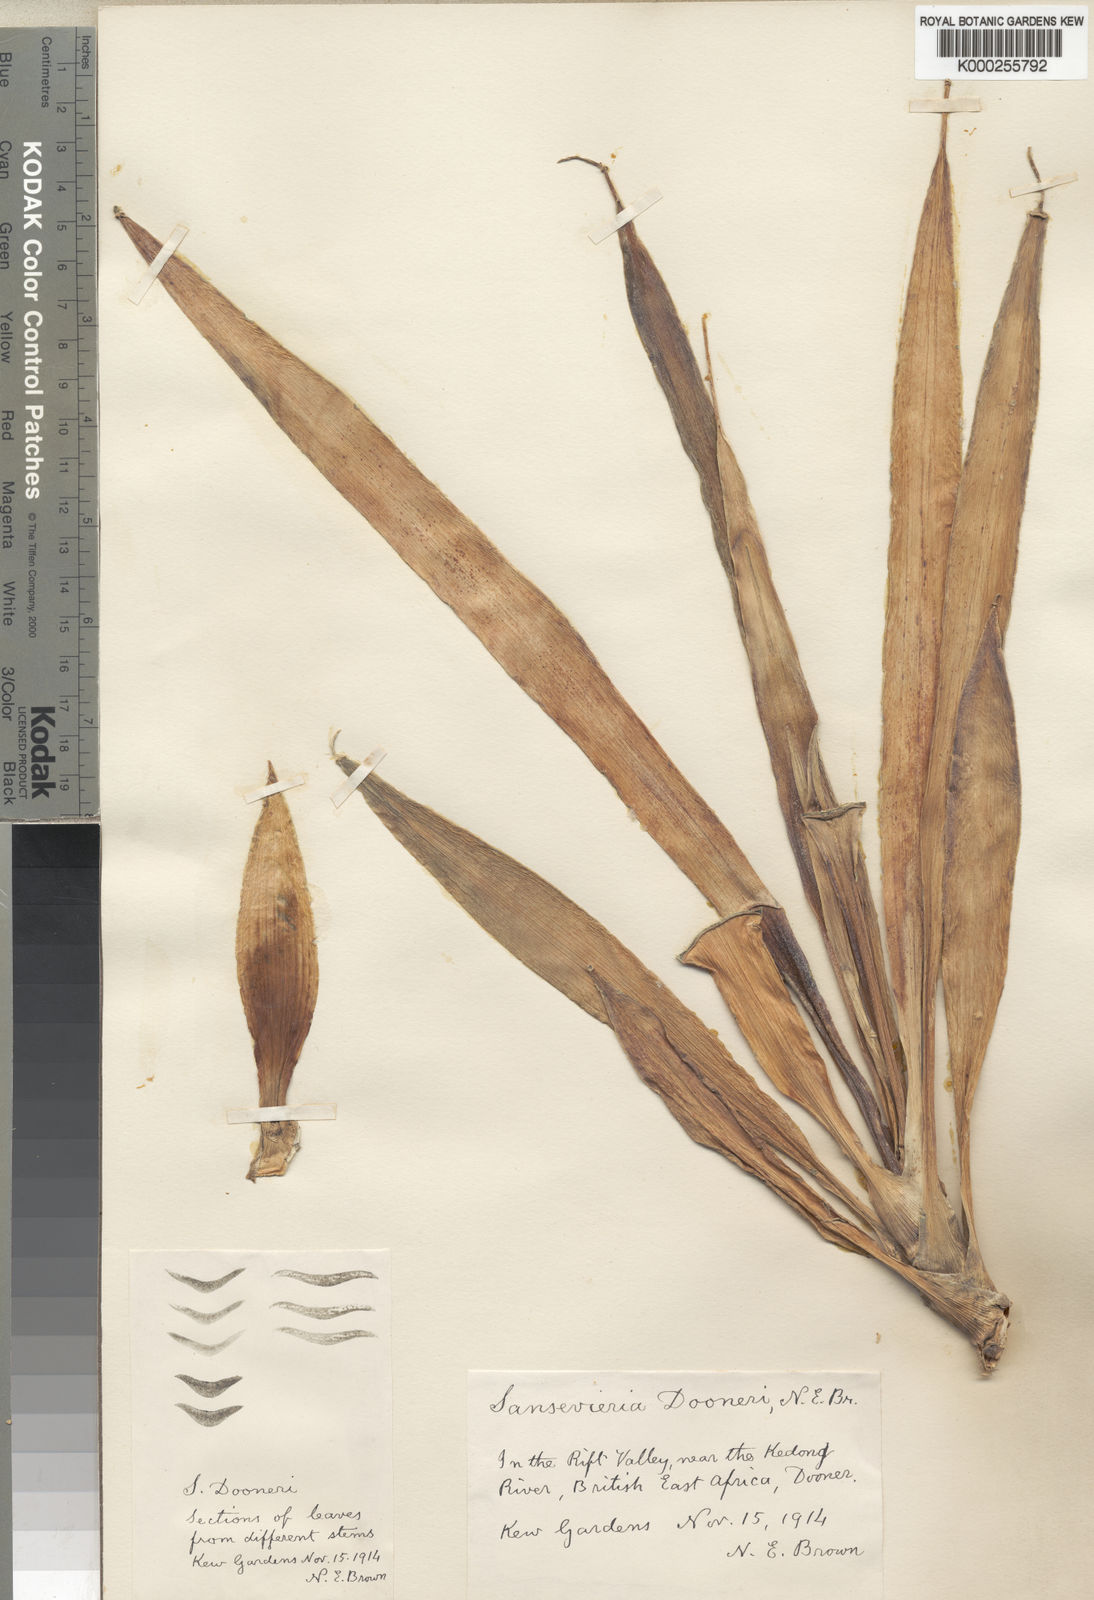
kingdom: Plantae
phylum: Tracheophyta
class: Liliopsida
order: Asparagales
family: Asparagaceae
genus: Dracaena
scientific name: Dracaena parva
